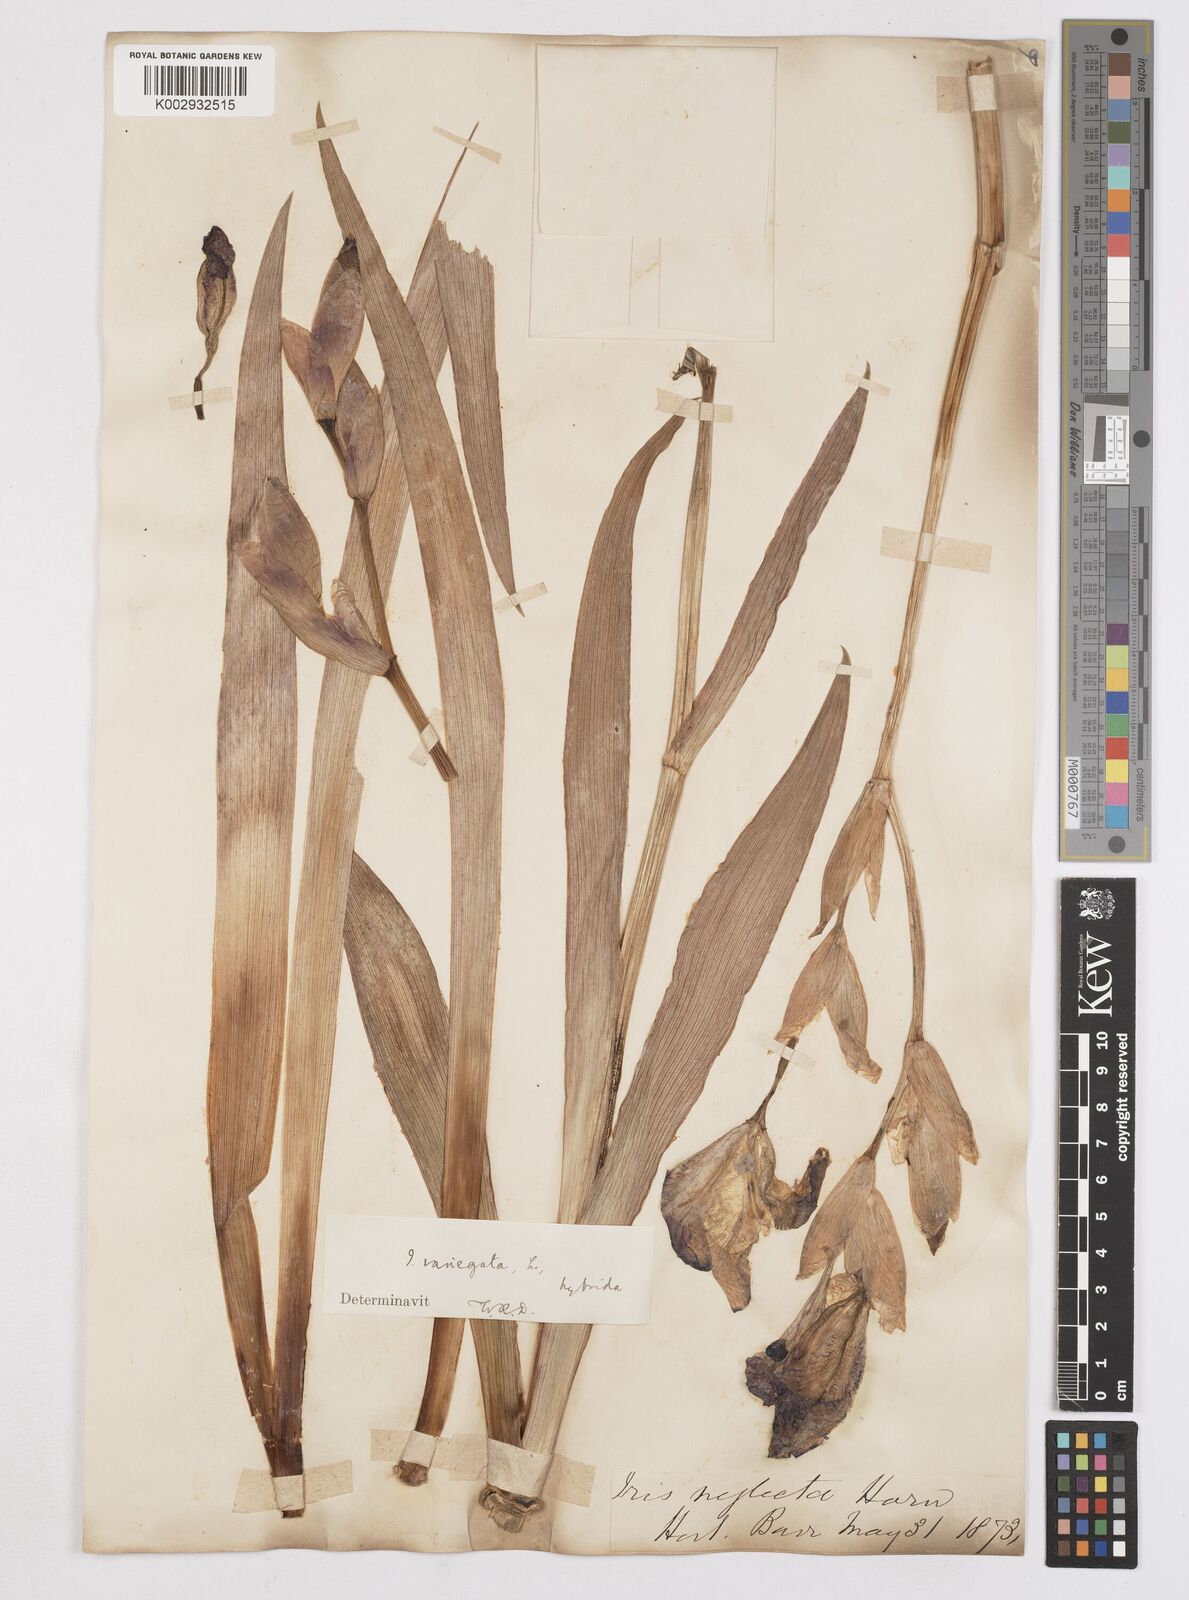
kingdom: Plantae
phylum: Tracheophyta
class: Liliopsida
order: Asparagales
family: Iridaceae
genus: Iris
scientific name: Iris
